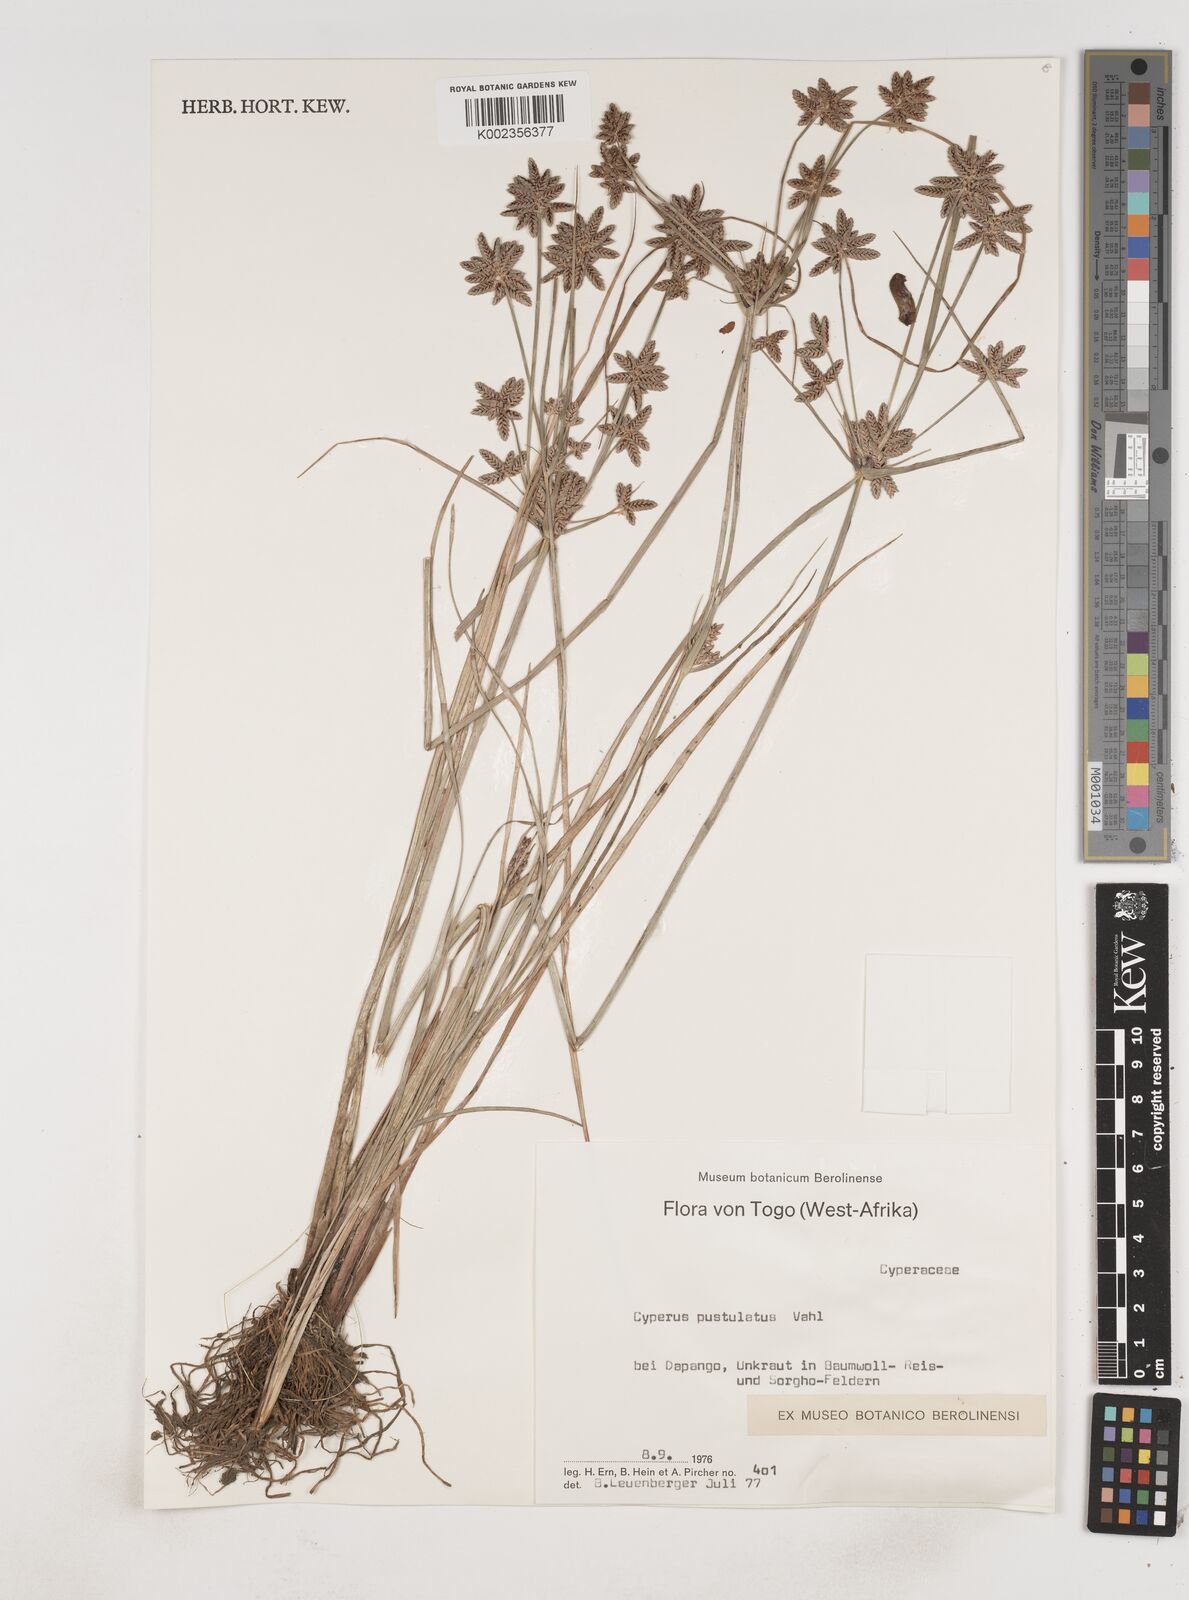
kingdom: Plantae
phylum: Tracheophyta
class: Liliopsida
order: Poales
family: Cyperaceae
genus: Cyperus
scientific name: Cyperus pustulatus
